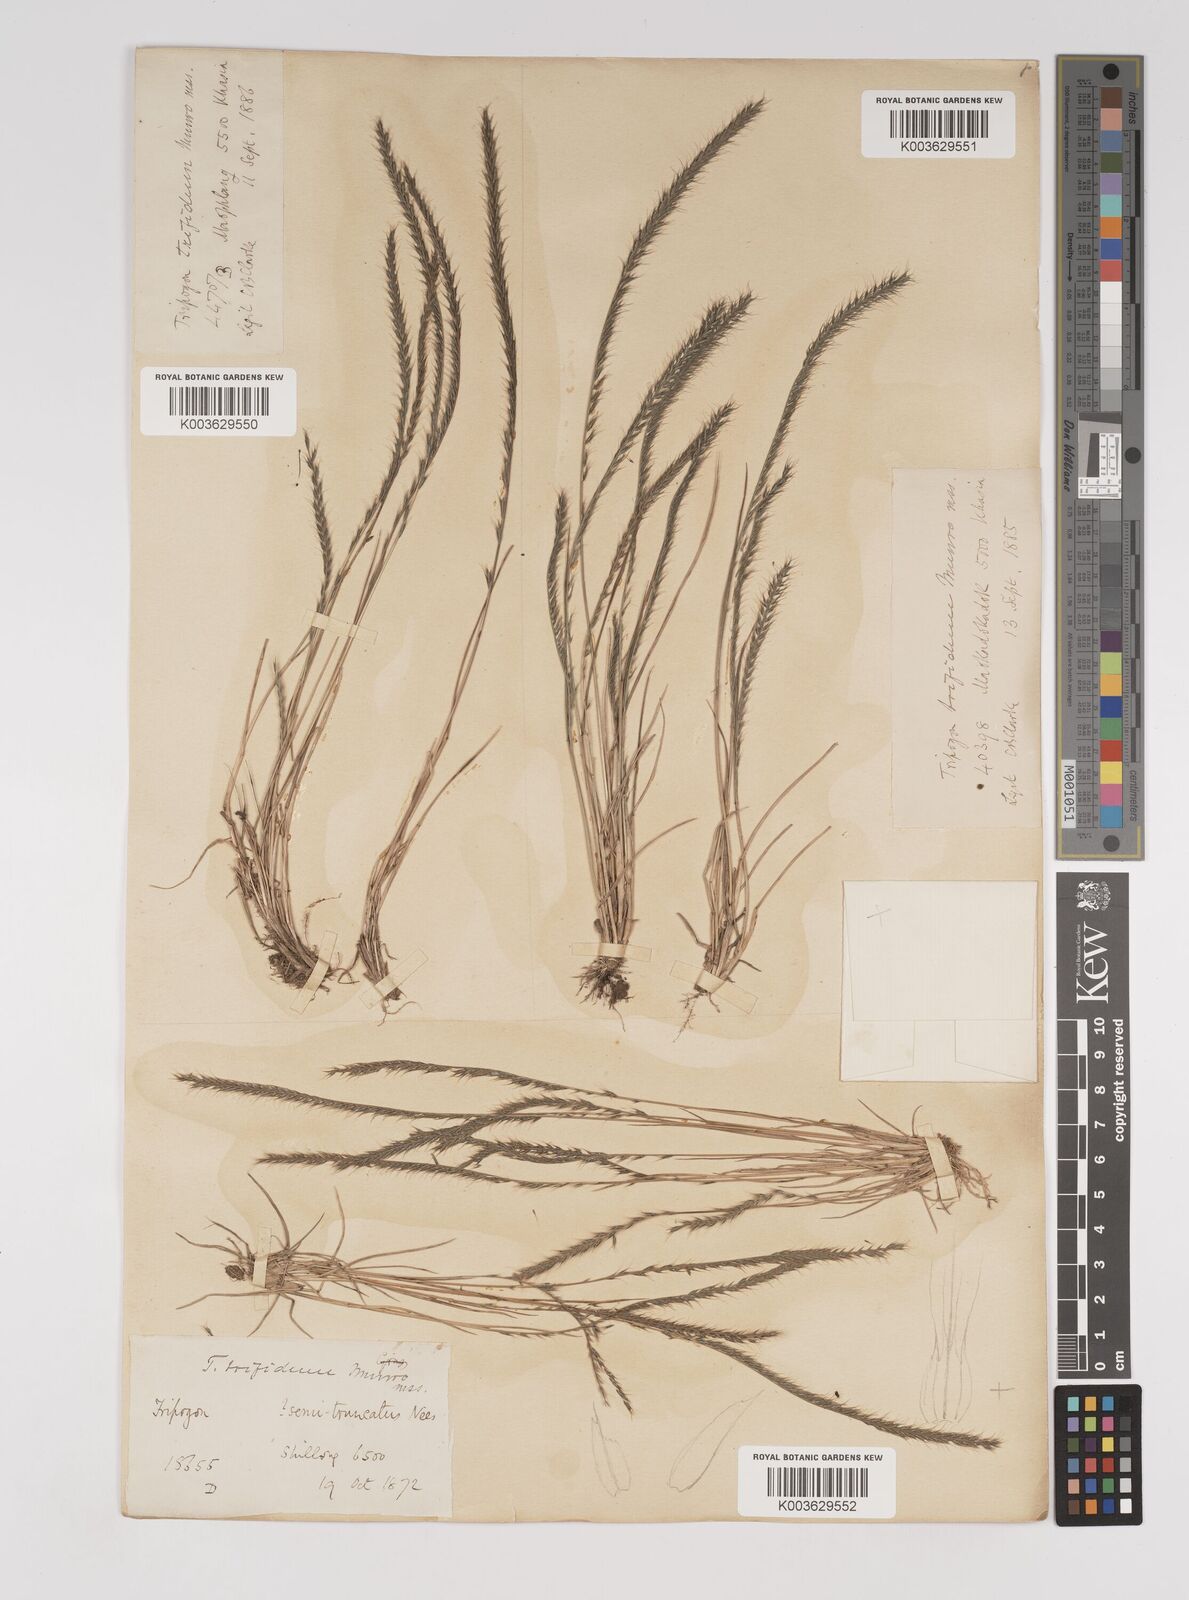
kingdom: Plantae
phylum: Tracheophyta
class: Liliopsida
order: Poales
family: Poaceae
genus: Tripogon
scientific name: Tripogon filiformis
